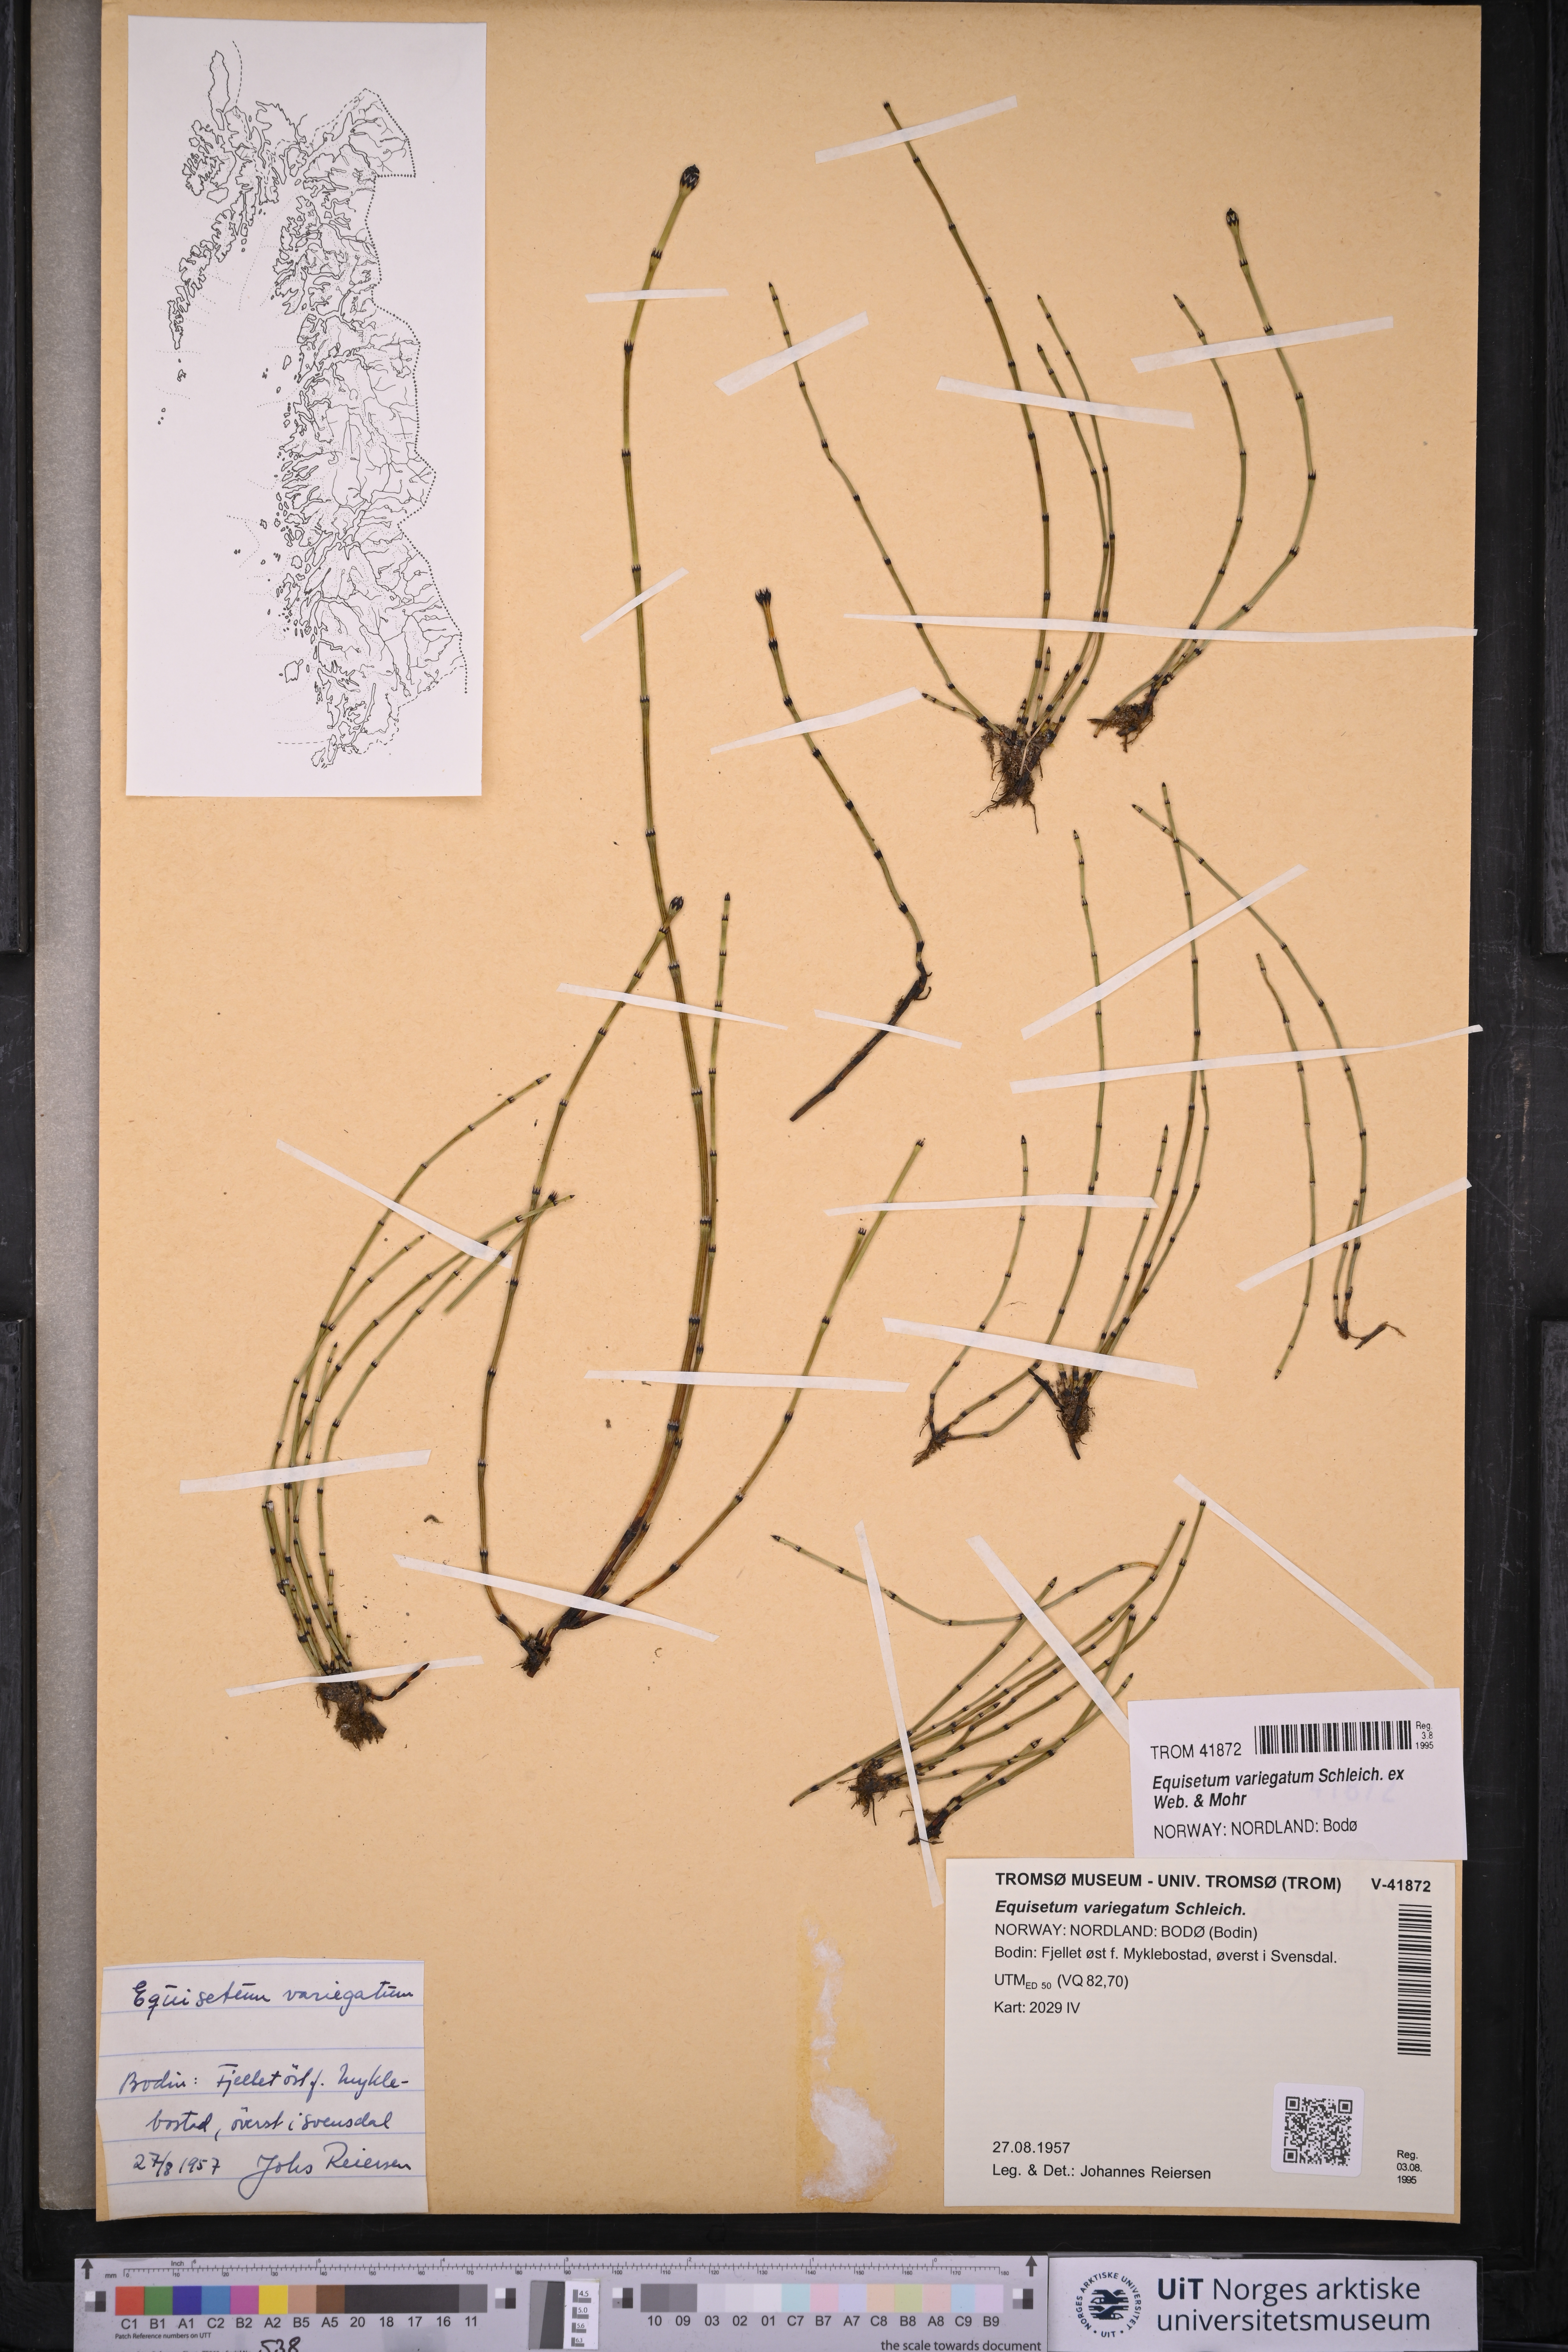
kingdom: Plantae
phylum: Tracheophyta
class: Polypodiopsida
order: Equisetales
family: Equisetaceae
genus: Equisetum
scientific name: Equisetum variegatum
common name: Variegated horsetail
